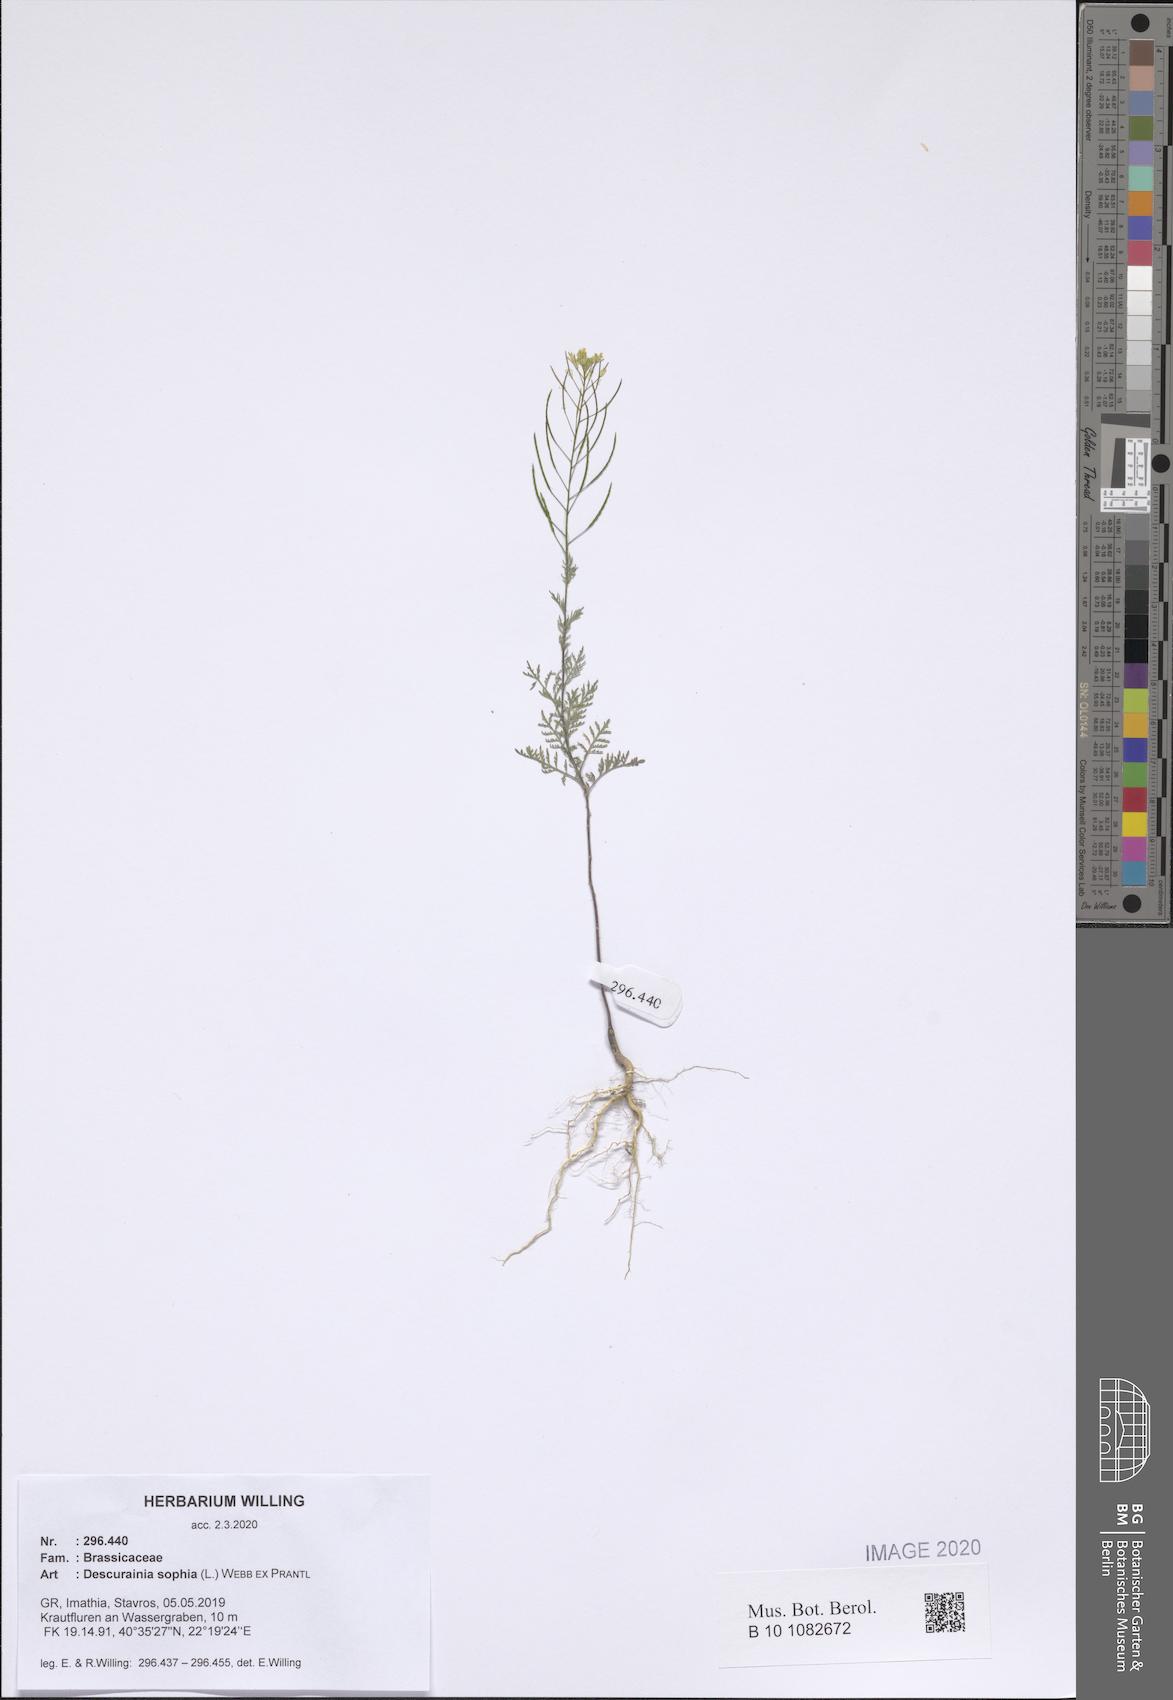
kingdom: Plantae
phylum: Tracheophyta
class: Magnoliopsida
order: Brassicales
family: Brassicaceae
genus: Descurainia
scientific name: Descurainia sophia
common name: Flixweed
